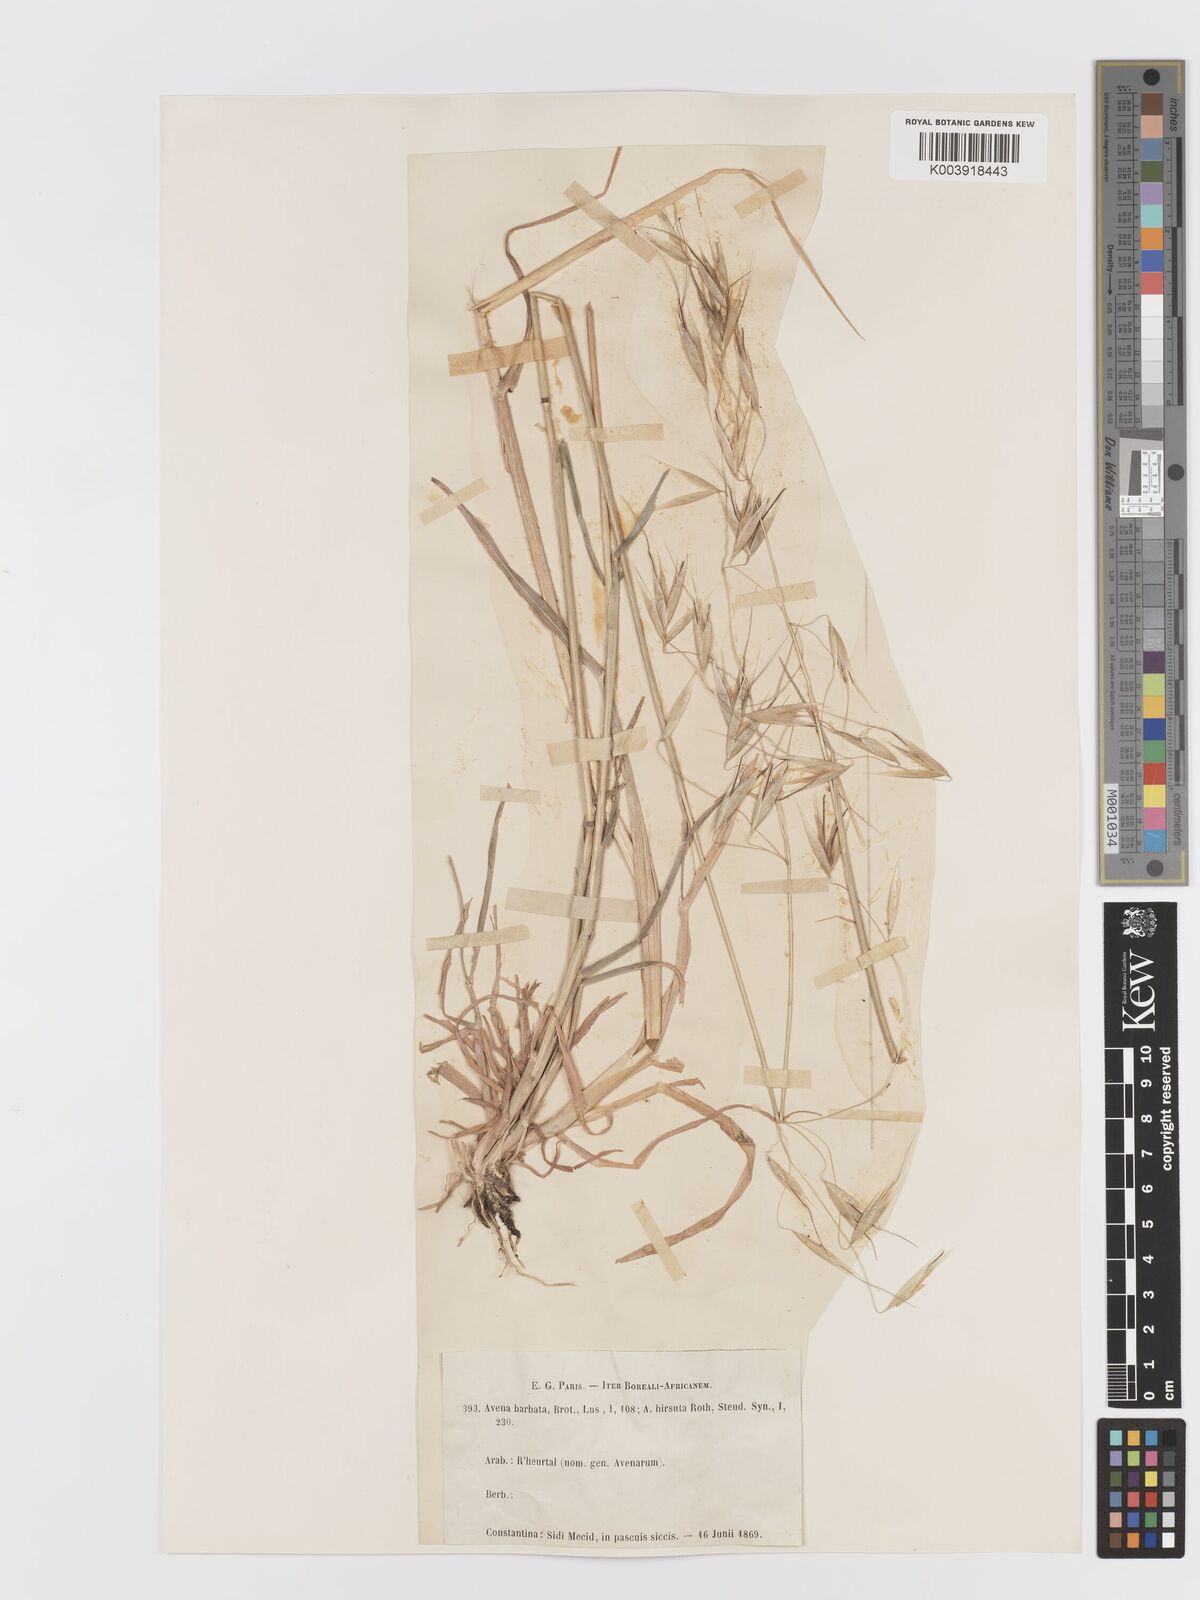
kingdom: Plantae
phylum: Tracheophyta
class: Liliopsida
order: Poales
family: Poaceae
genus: Avena
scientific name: Avena
